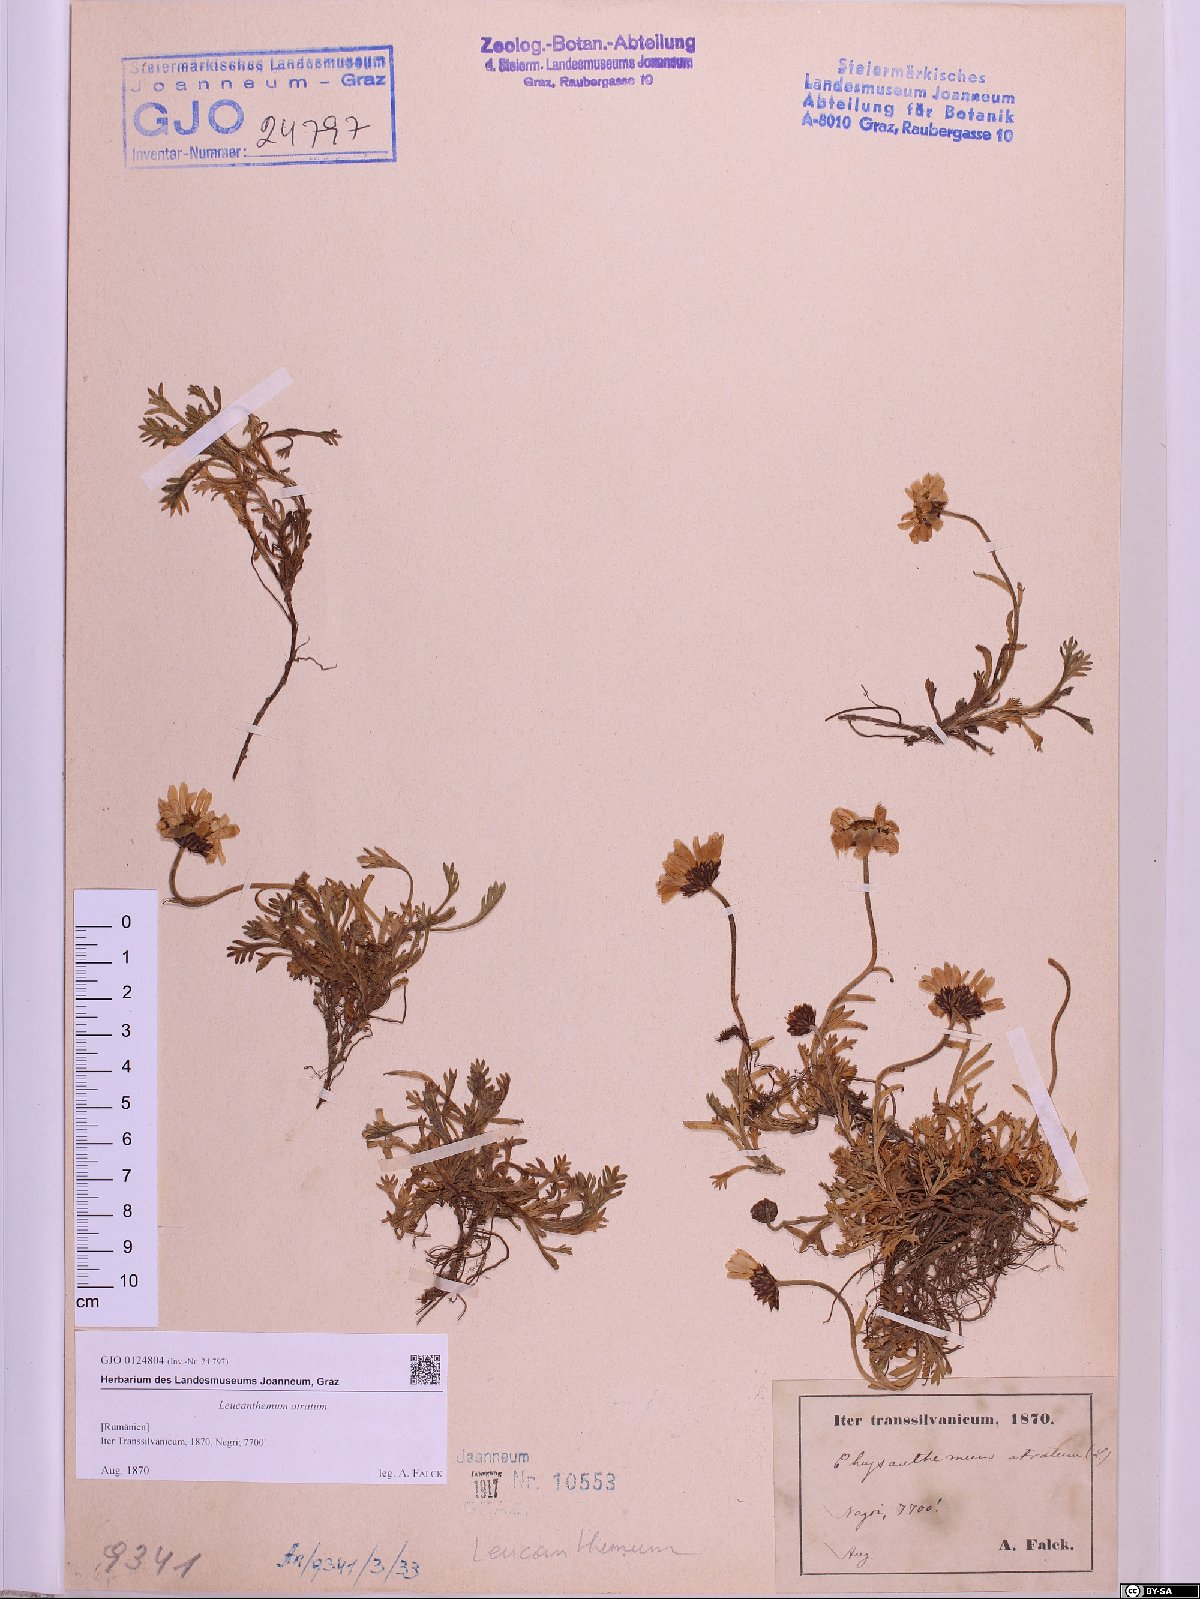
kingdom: Plantae
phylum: Tracheophyta
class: Magnoliopsida
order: Asterales
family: Asteraceae
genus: Leucanthemum
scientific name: Leucanthemum atratum
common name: Saw-leaved moon-daisy
